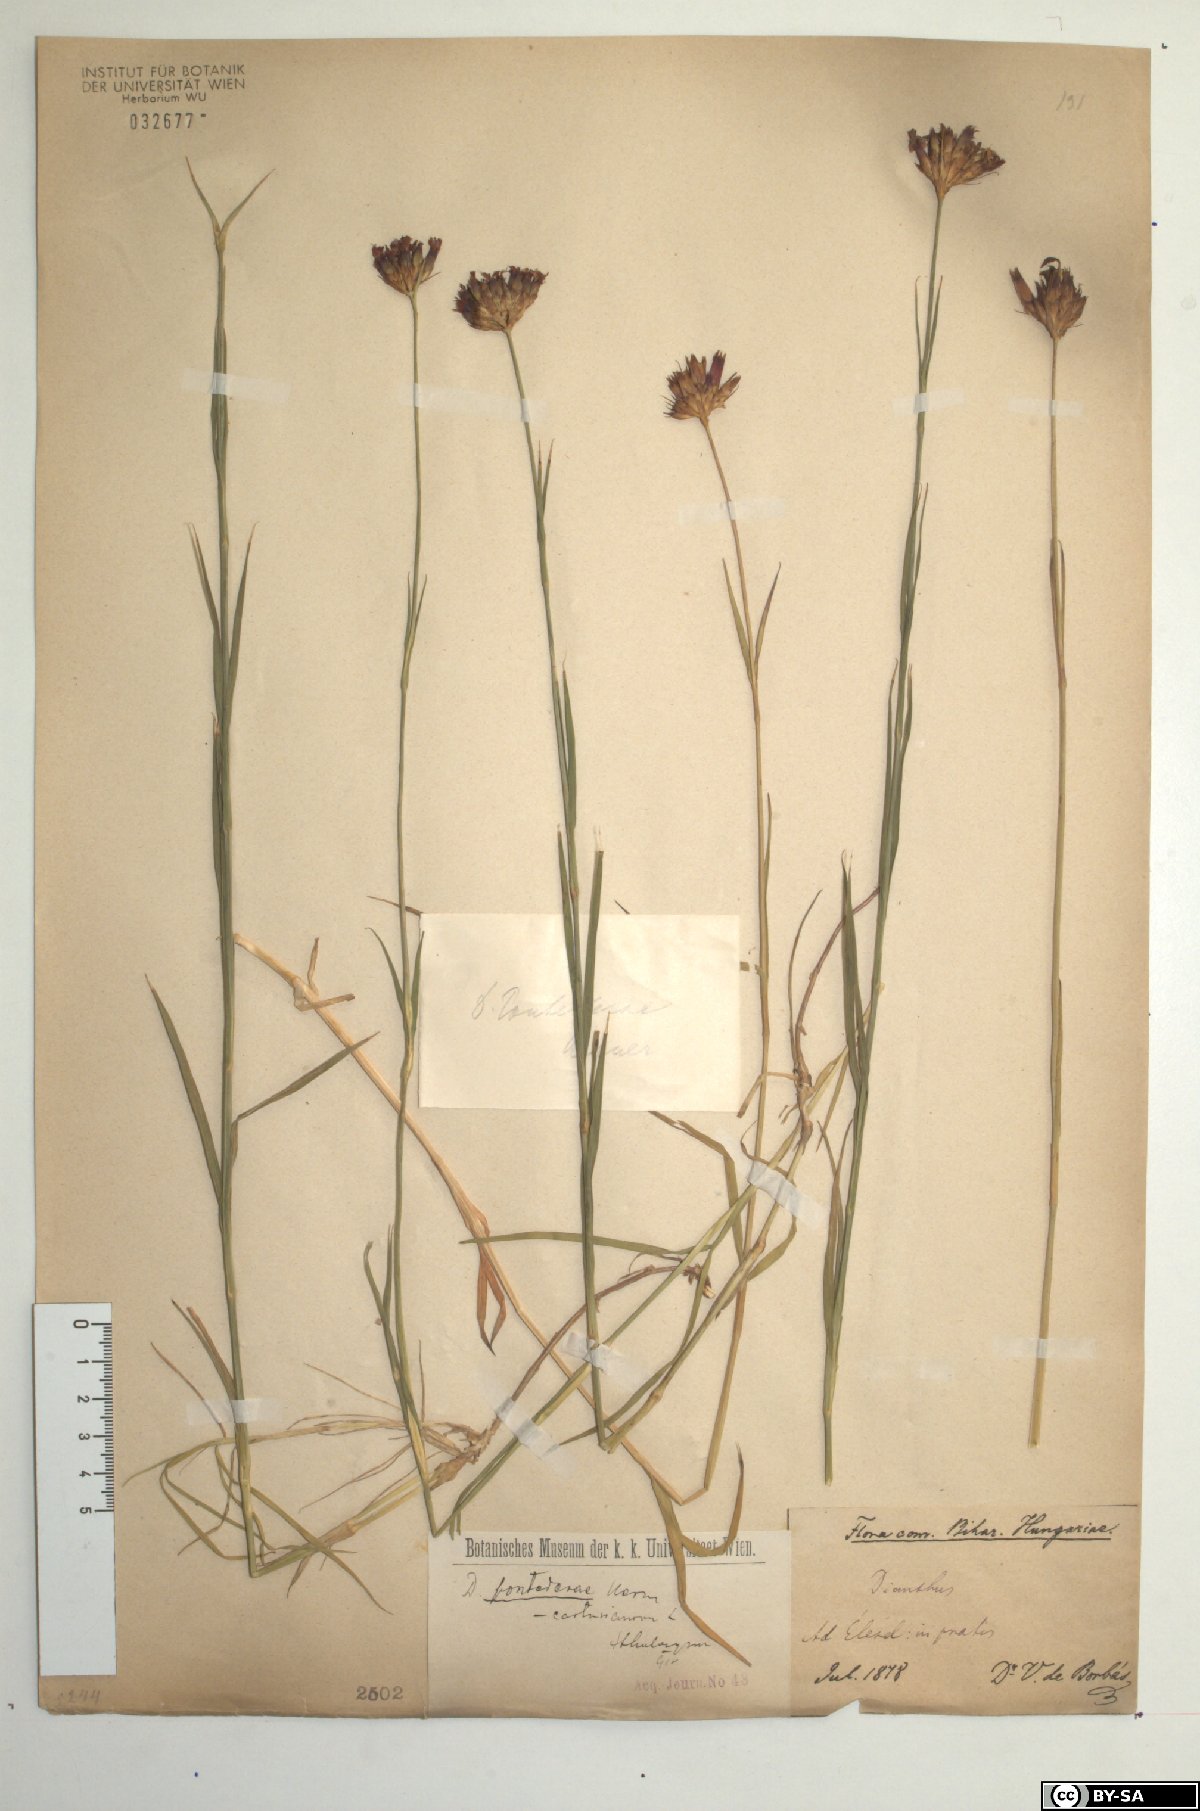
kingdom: Plantae
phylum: Tracheophyta
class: Magnoliopsida
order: Caryophyllales
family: Caryophyllaceae
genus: Dianthus
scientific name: Dianthus pontederae
